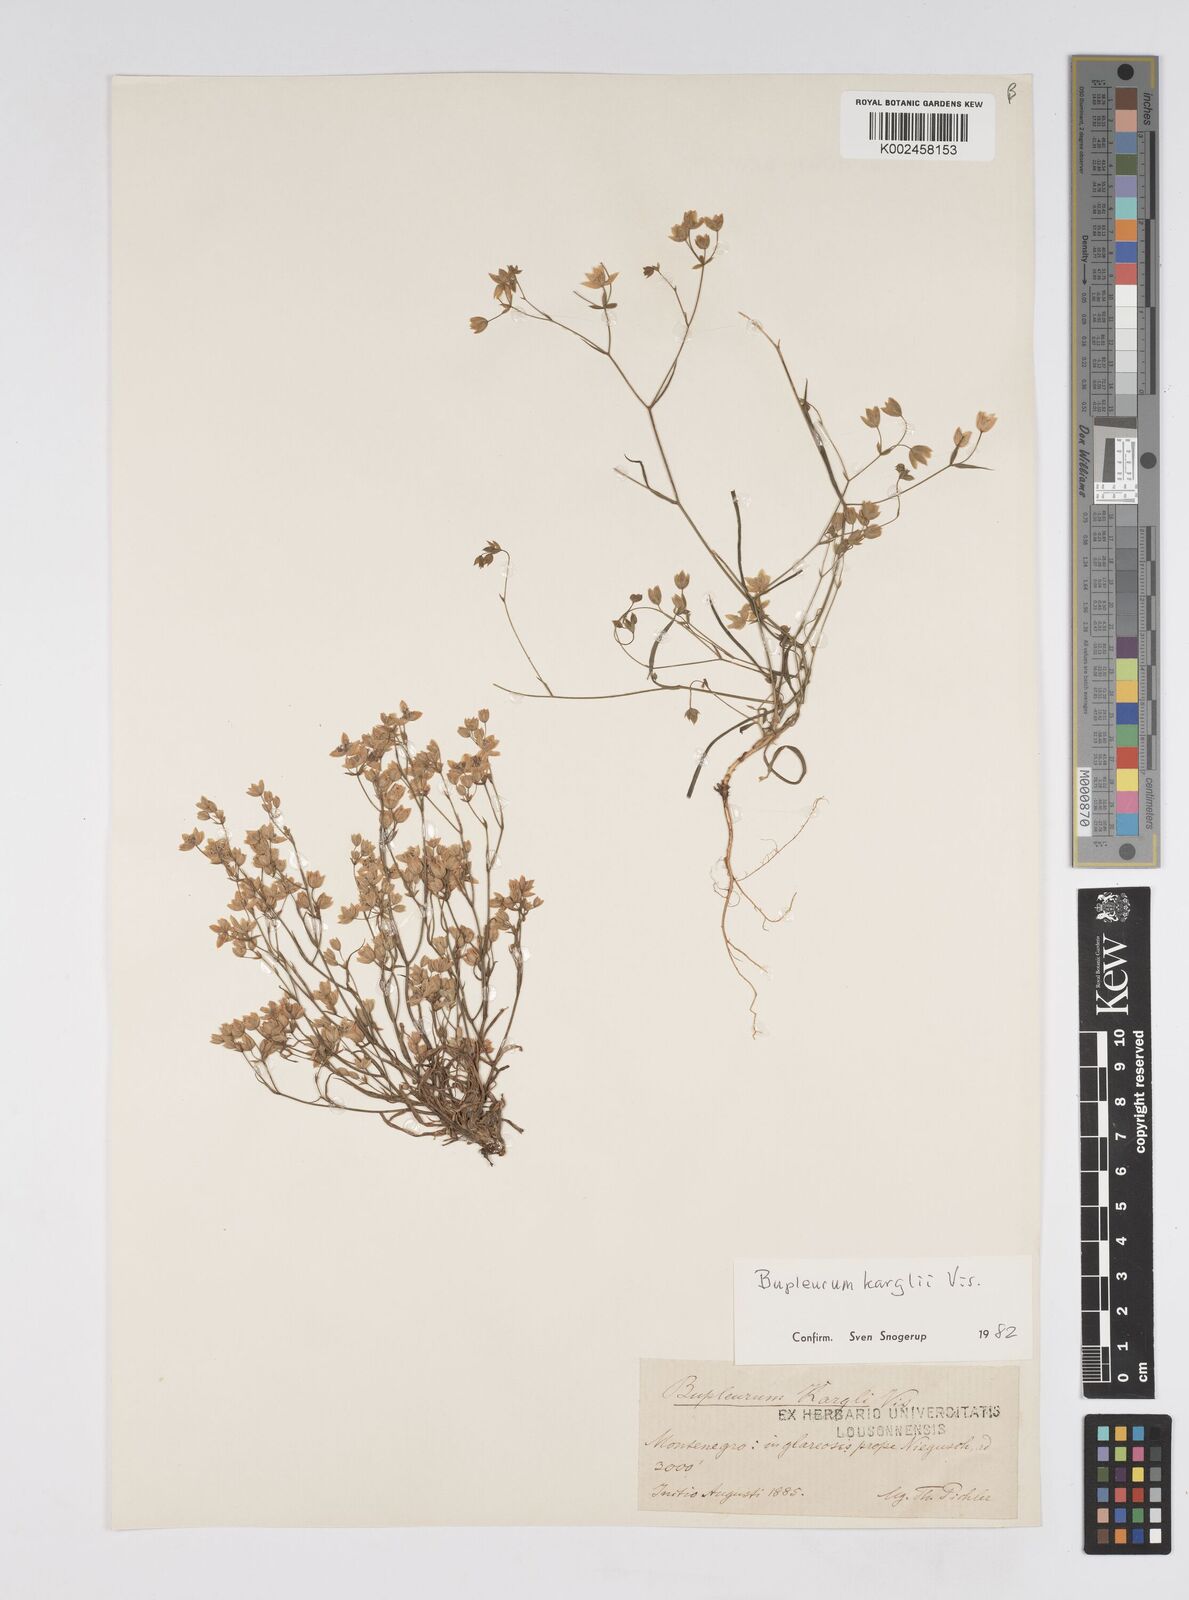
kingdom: Plantae
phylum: Tracheophyta
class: Magnoliopsida
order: Apiales
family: Apiaceae
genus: Bupleurum
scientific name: Bupleurum karglii
